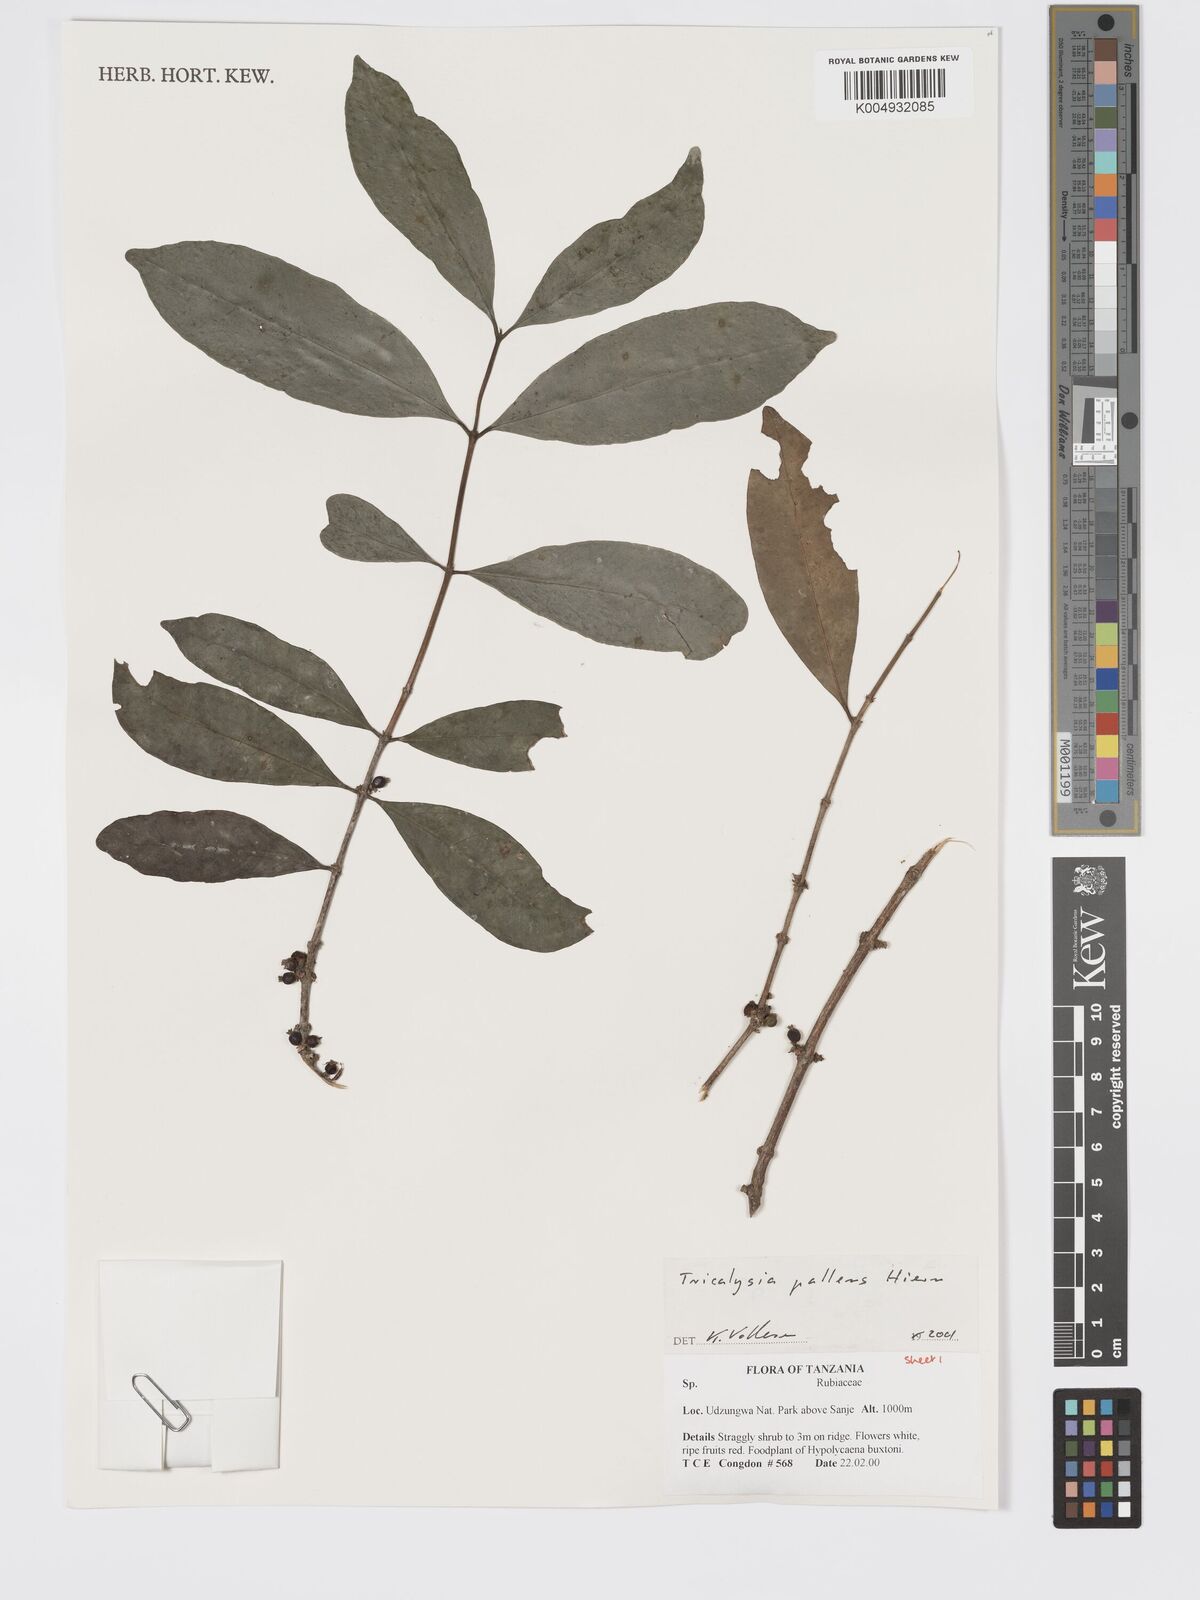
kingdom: Plantae
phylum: Tracheophyta
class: Magnoliopsida
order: Gentianales
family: Rubiaceae
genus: Tricalysia
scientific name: Tricalysia pallens
